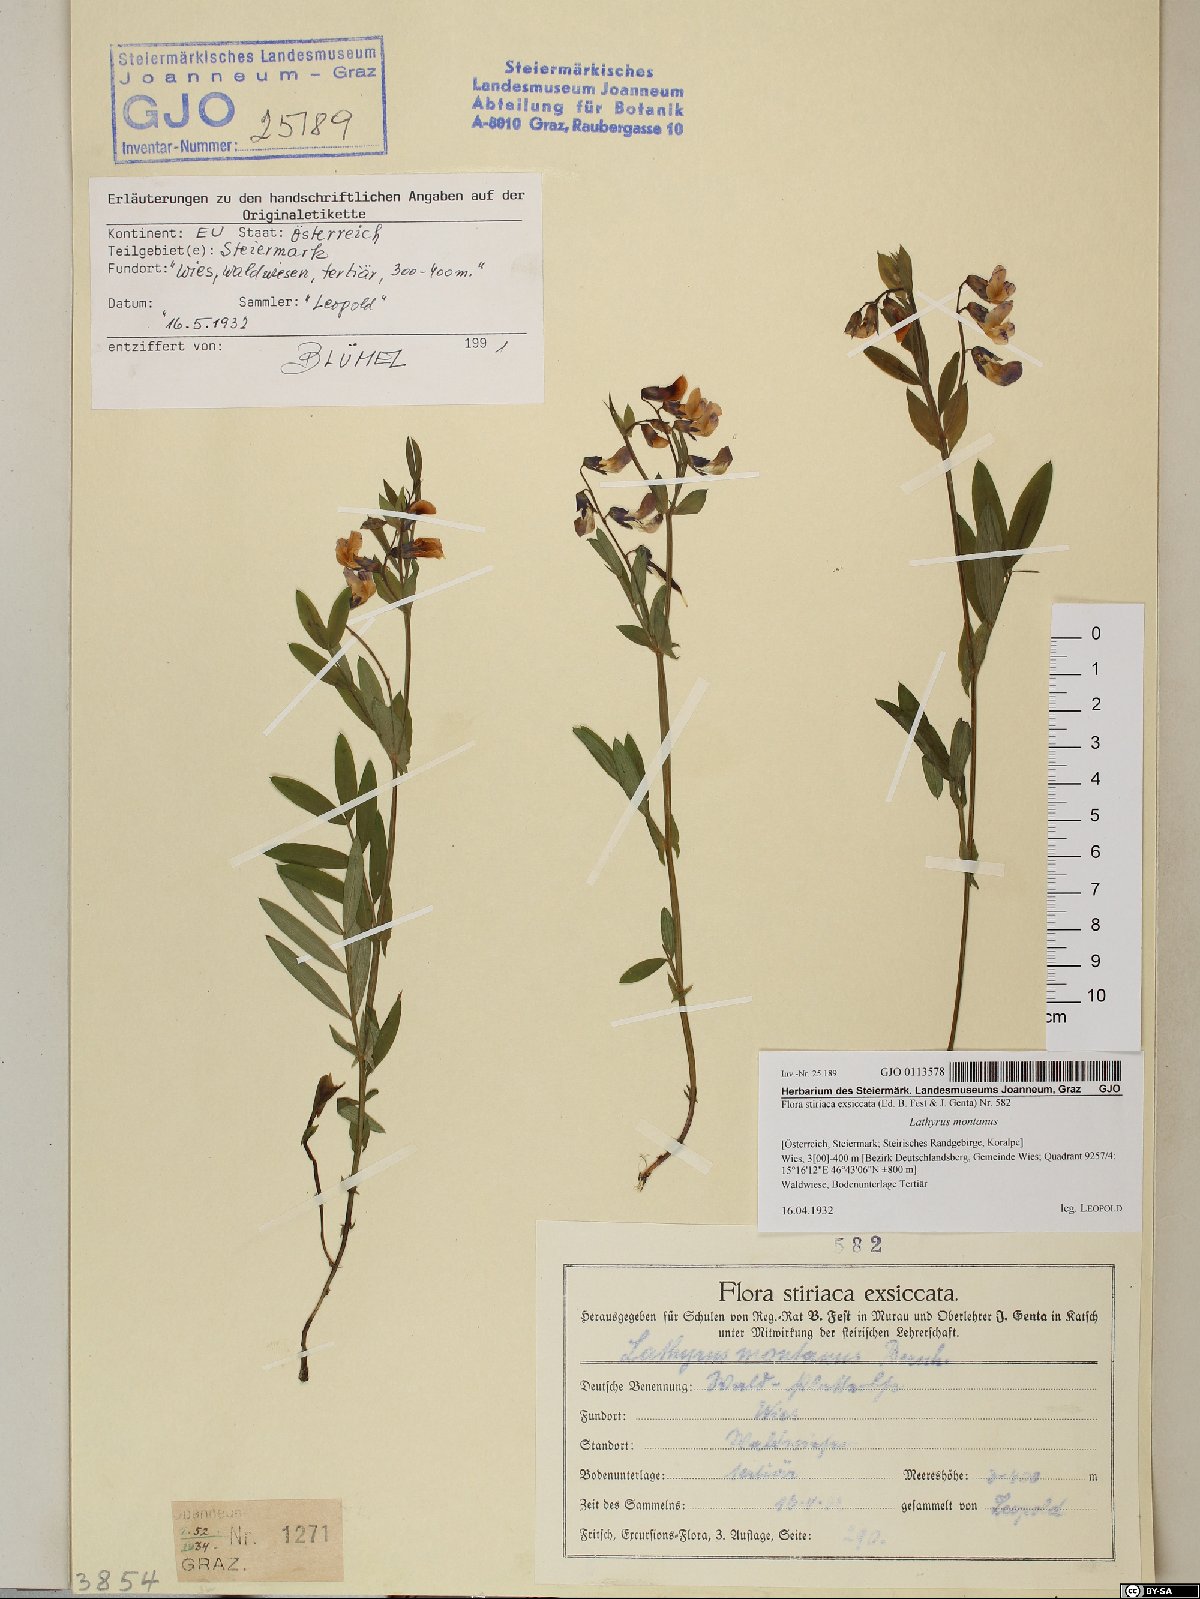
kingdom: Plantae
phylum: Tracheophyta
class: Magnoliopsida
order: Fabales
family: Fabaceae
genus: Lathyrus
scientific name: Lathyrus linifolius
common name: Bitter-vetch
